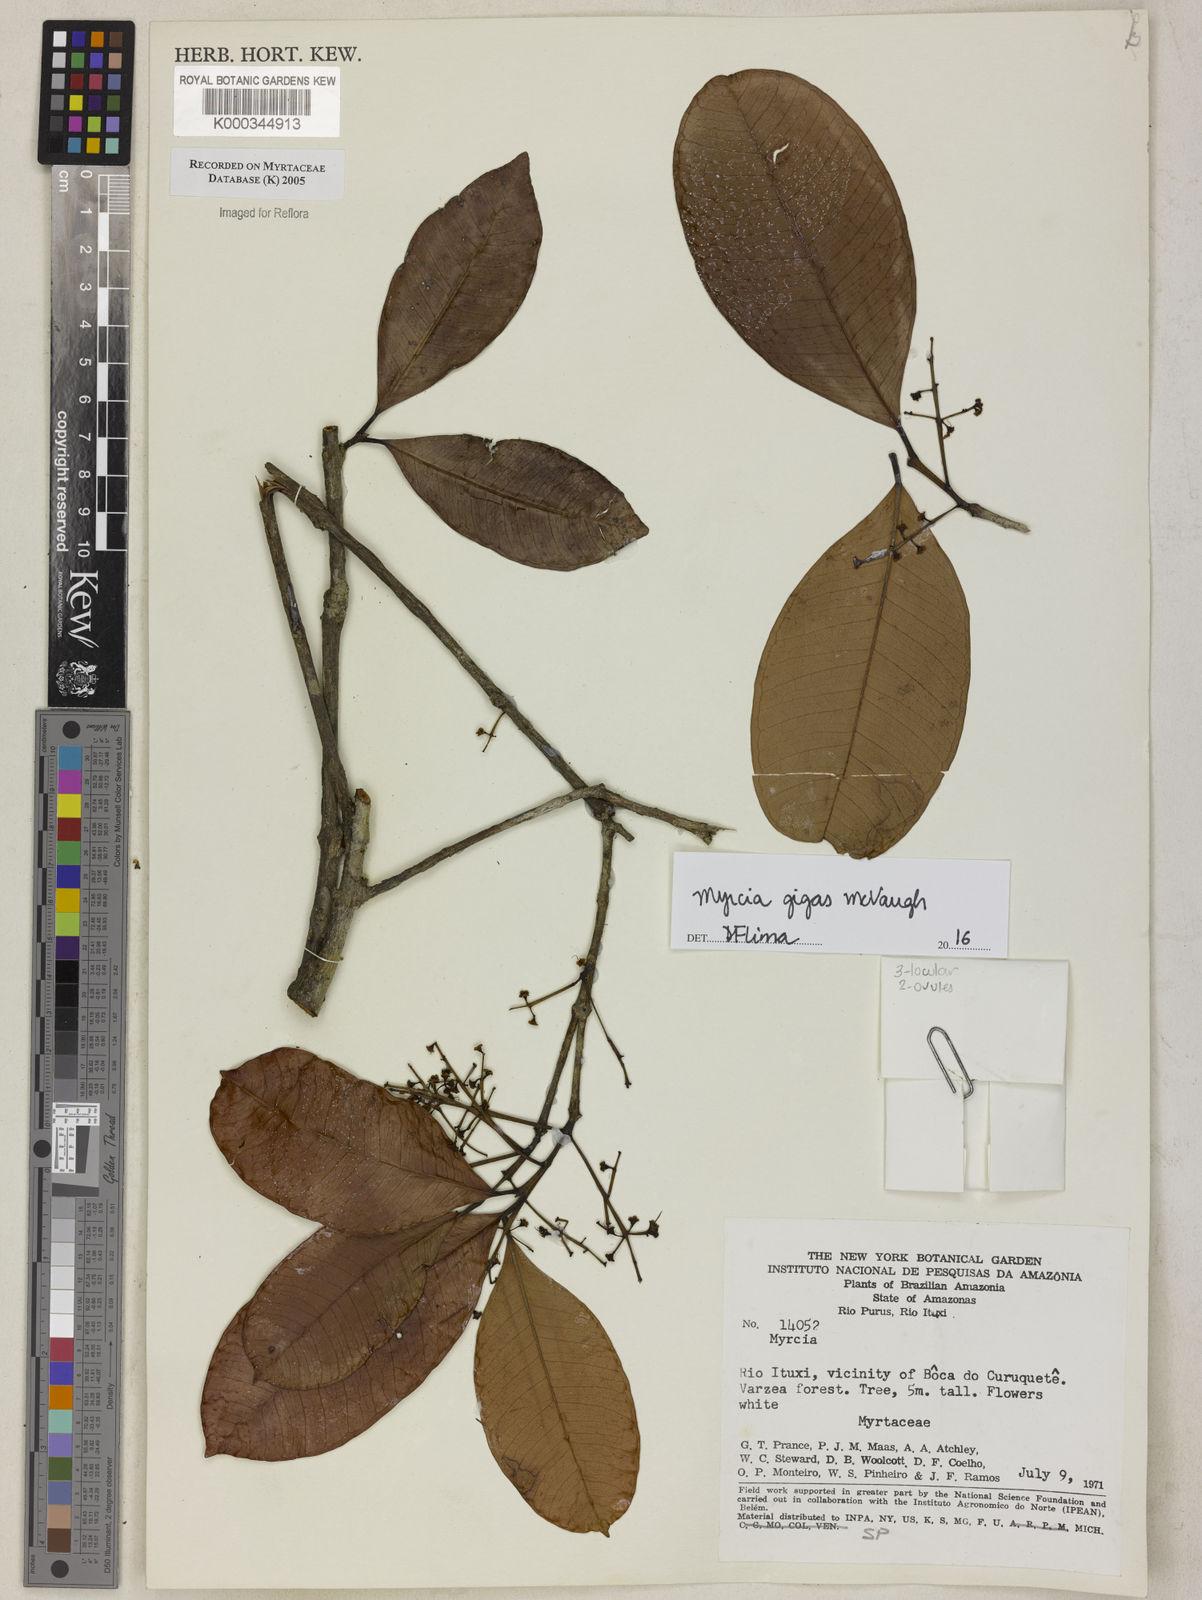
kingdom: Plantae
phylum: Tracheophyta
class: Magnoliopsida
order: Myrtales
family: Myrtaceae
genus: Myrcia
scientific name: Myrcia
